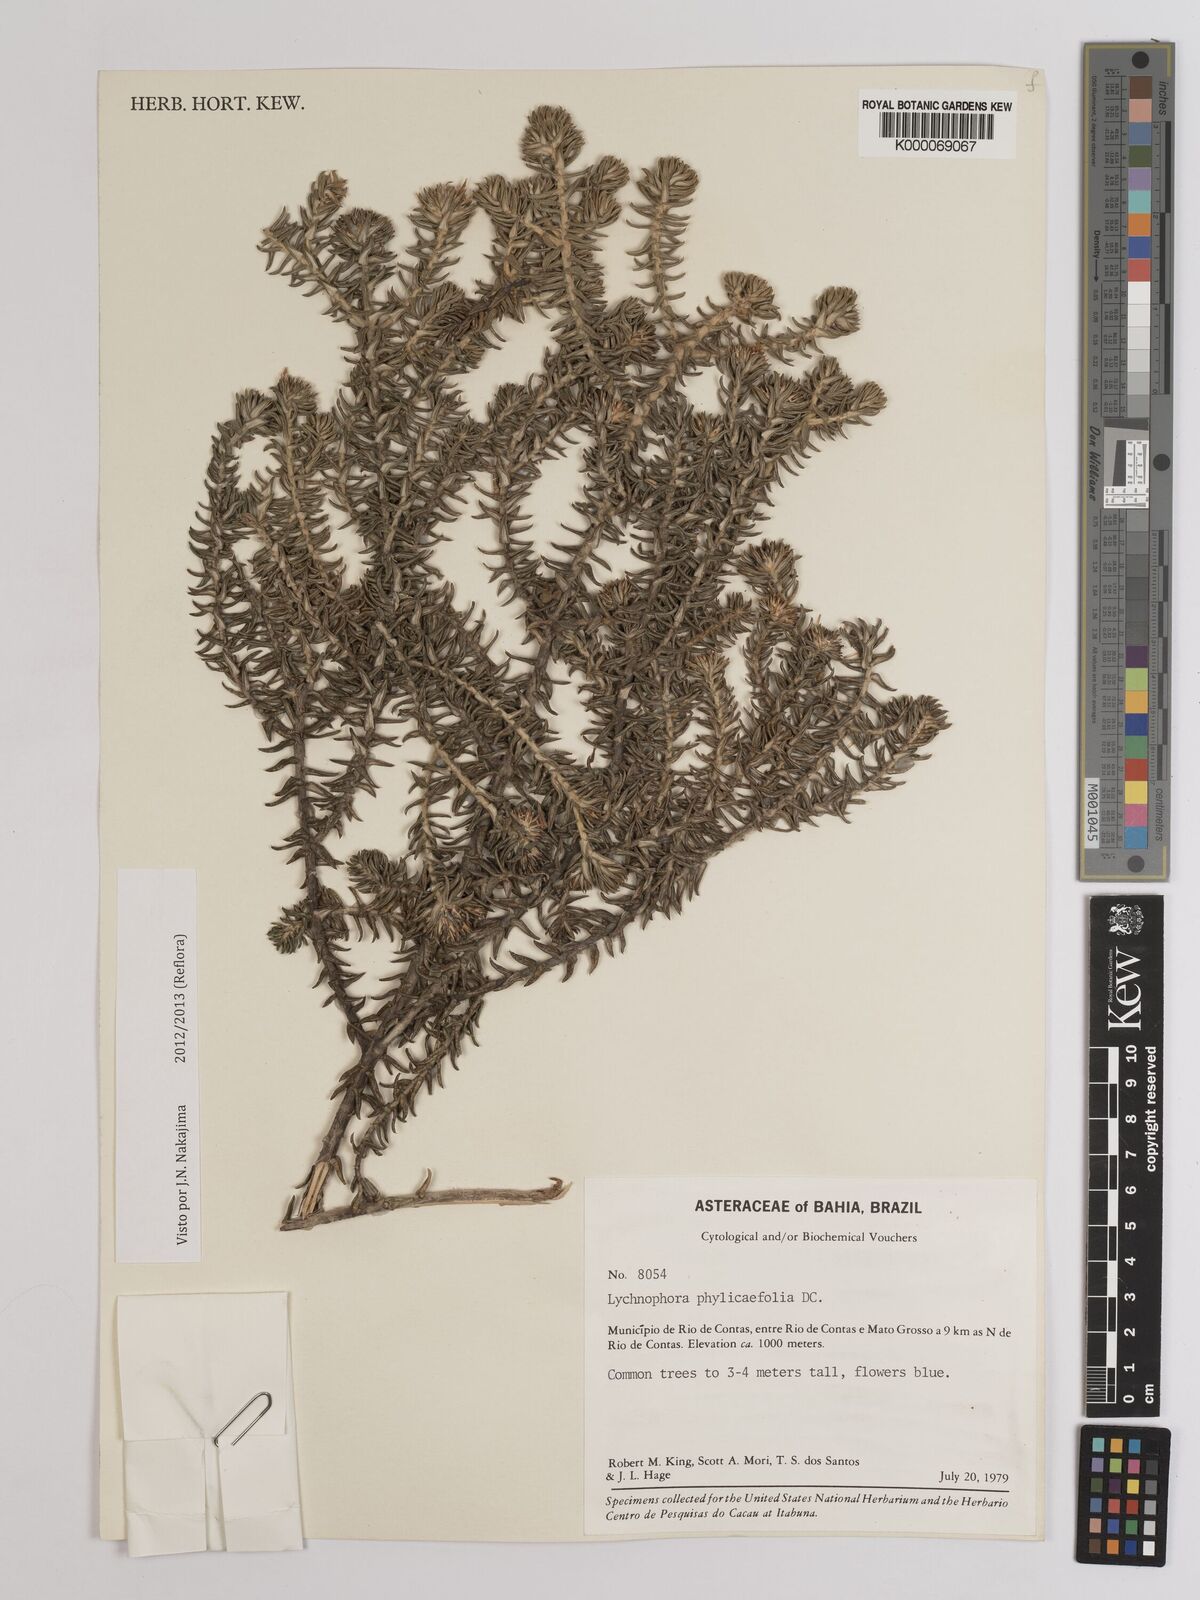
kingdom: Plantae
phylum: Tracheophyta
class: Magnoliopsida
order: Asterales
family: Asteraceae
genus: Lychnophora
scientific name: Lychnophora phylicifolia
